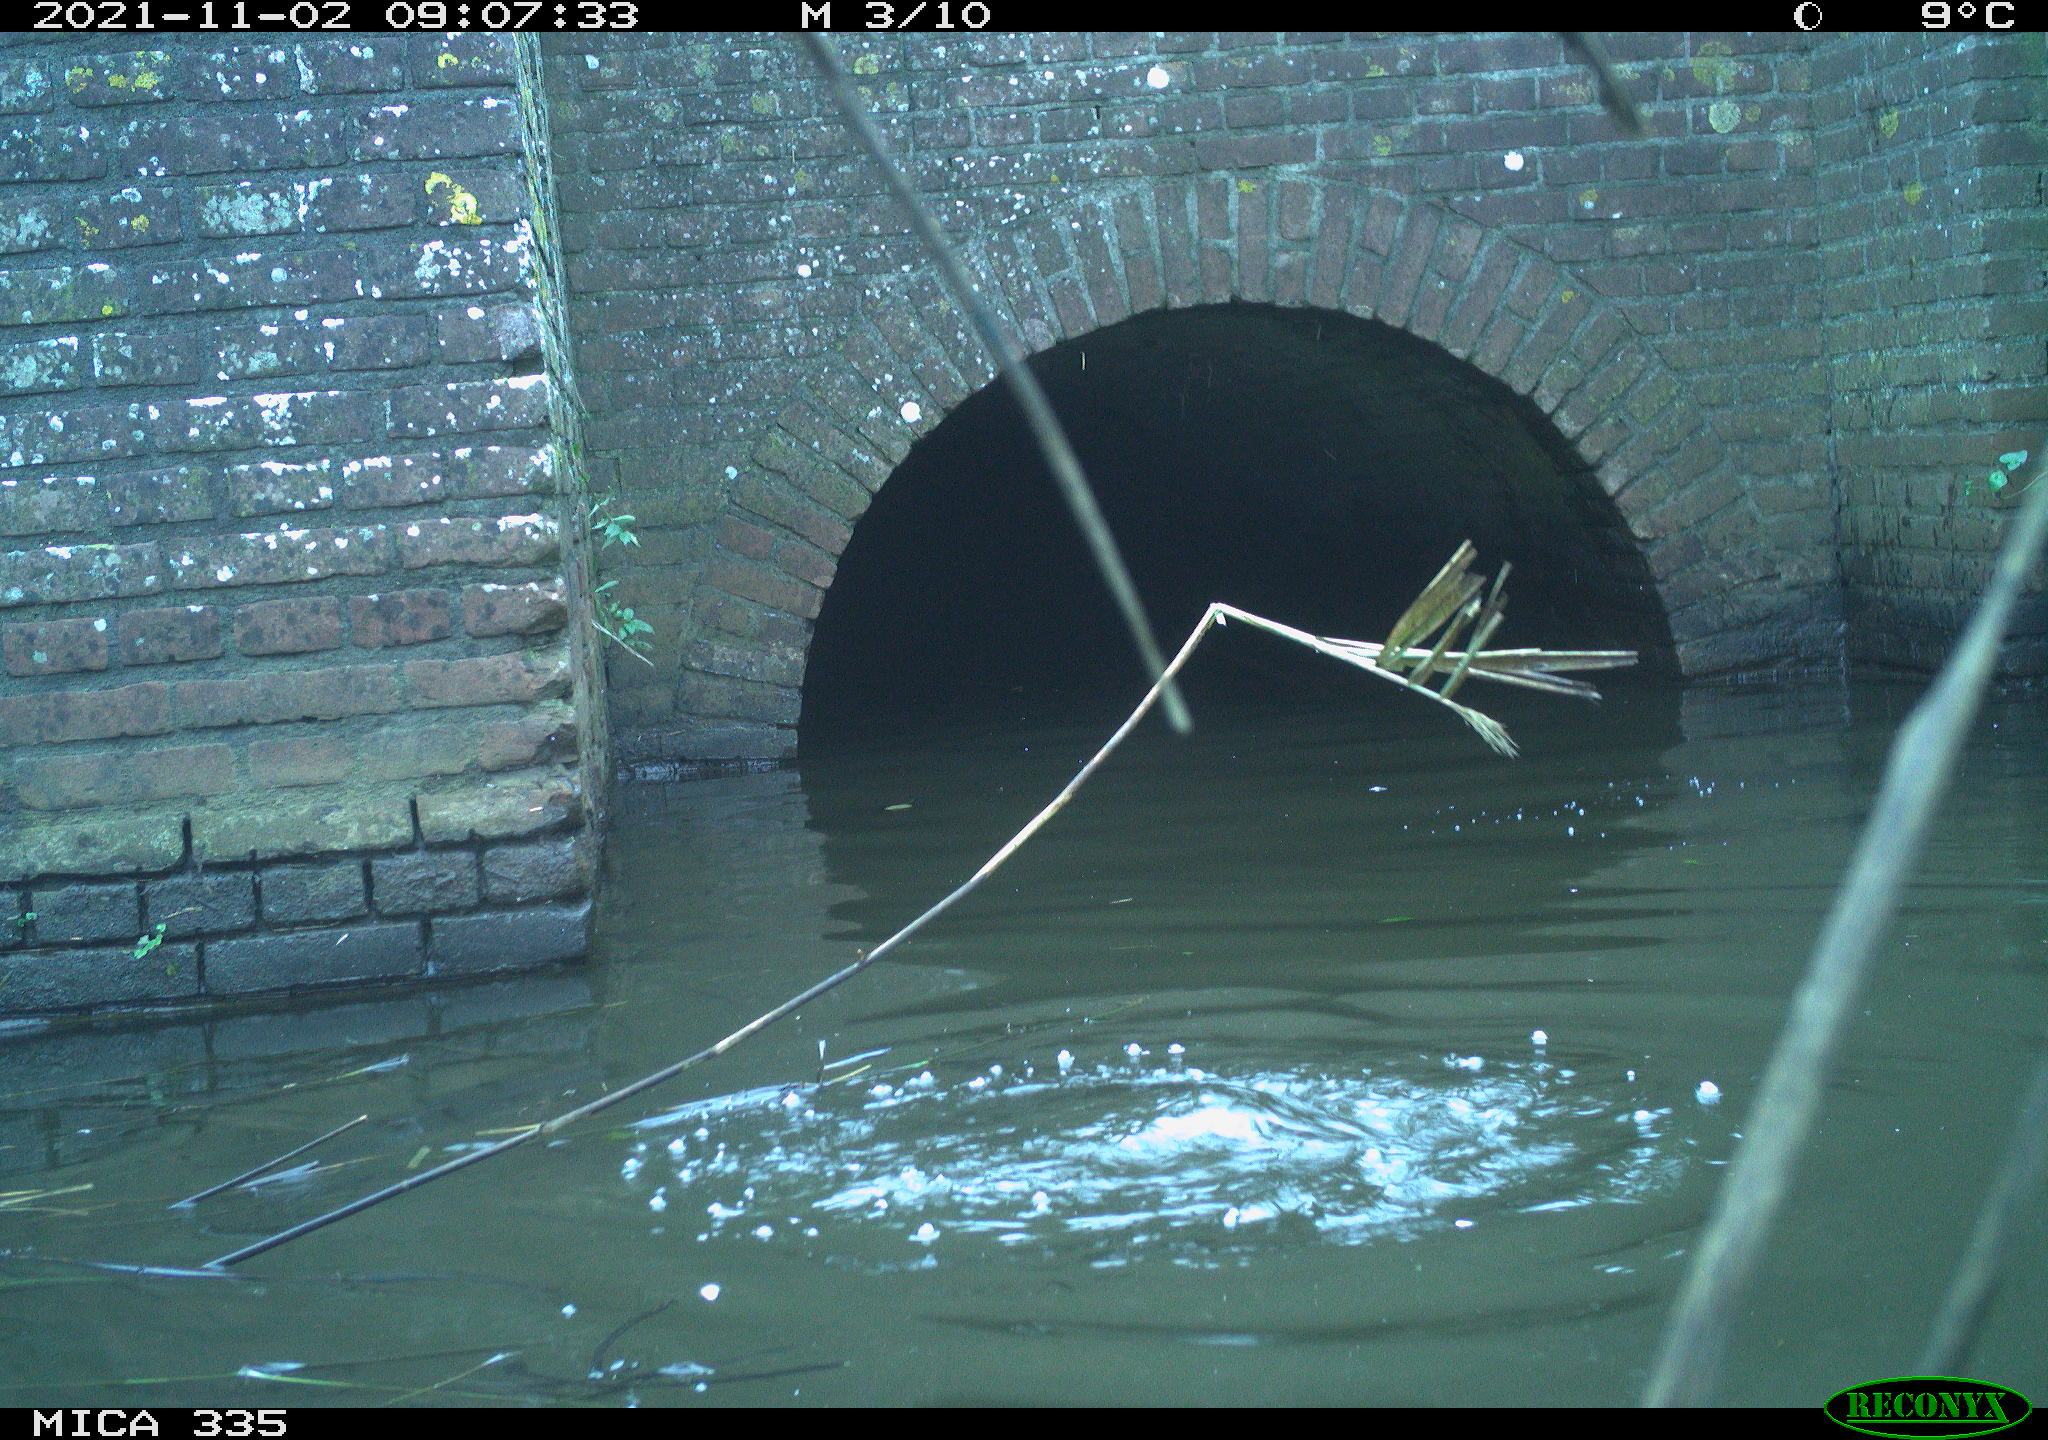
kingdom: Animalia
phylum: Chordata
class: Aves
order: Suliformes
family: Phalacrocoracidae
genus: Phalacrocorax
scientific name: Phalacrocorax carbo
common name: Great cormorant
